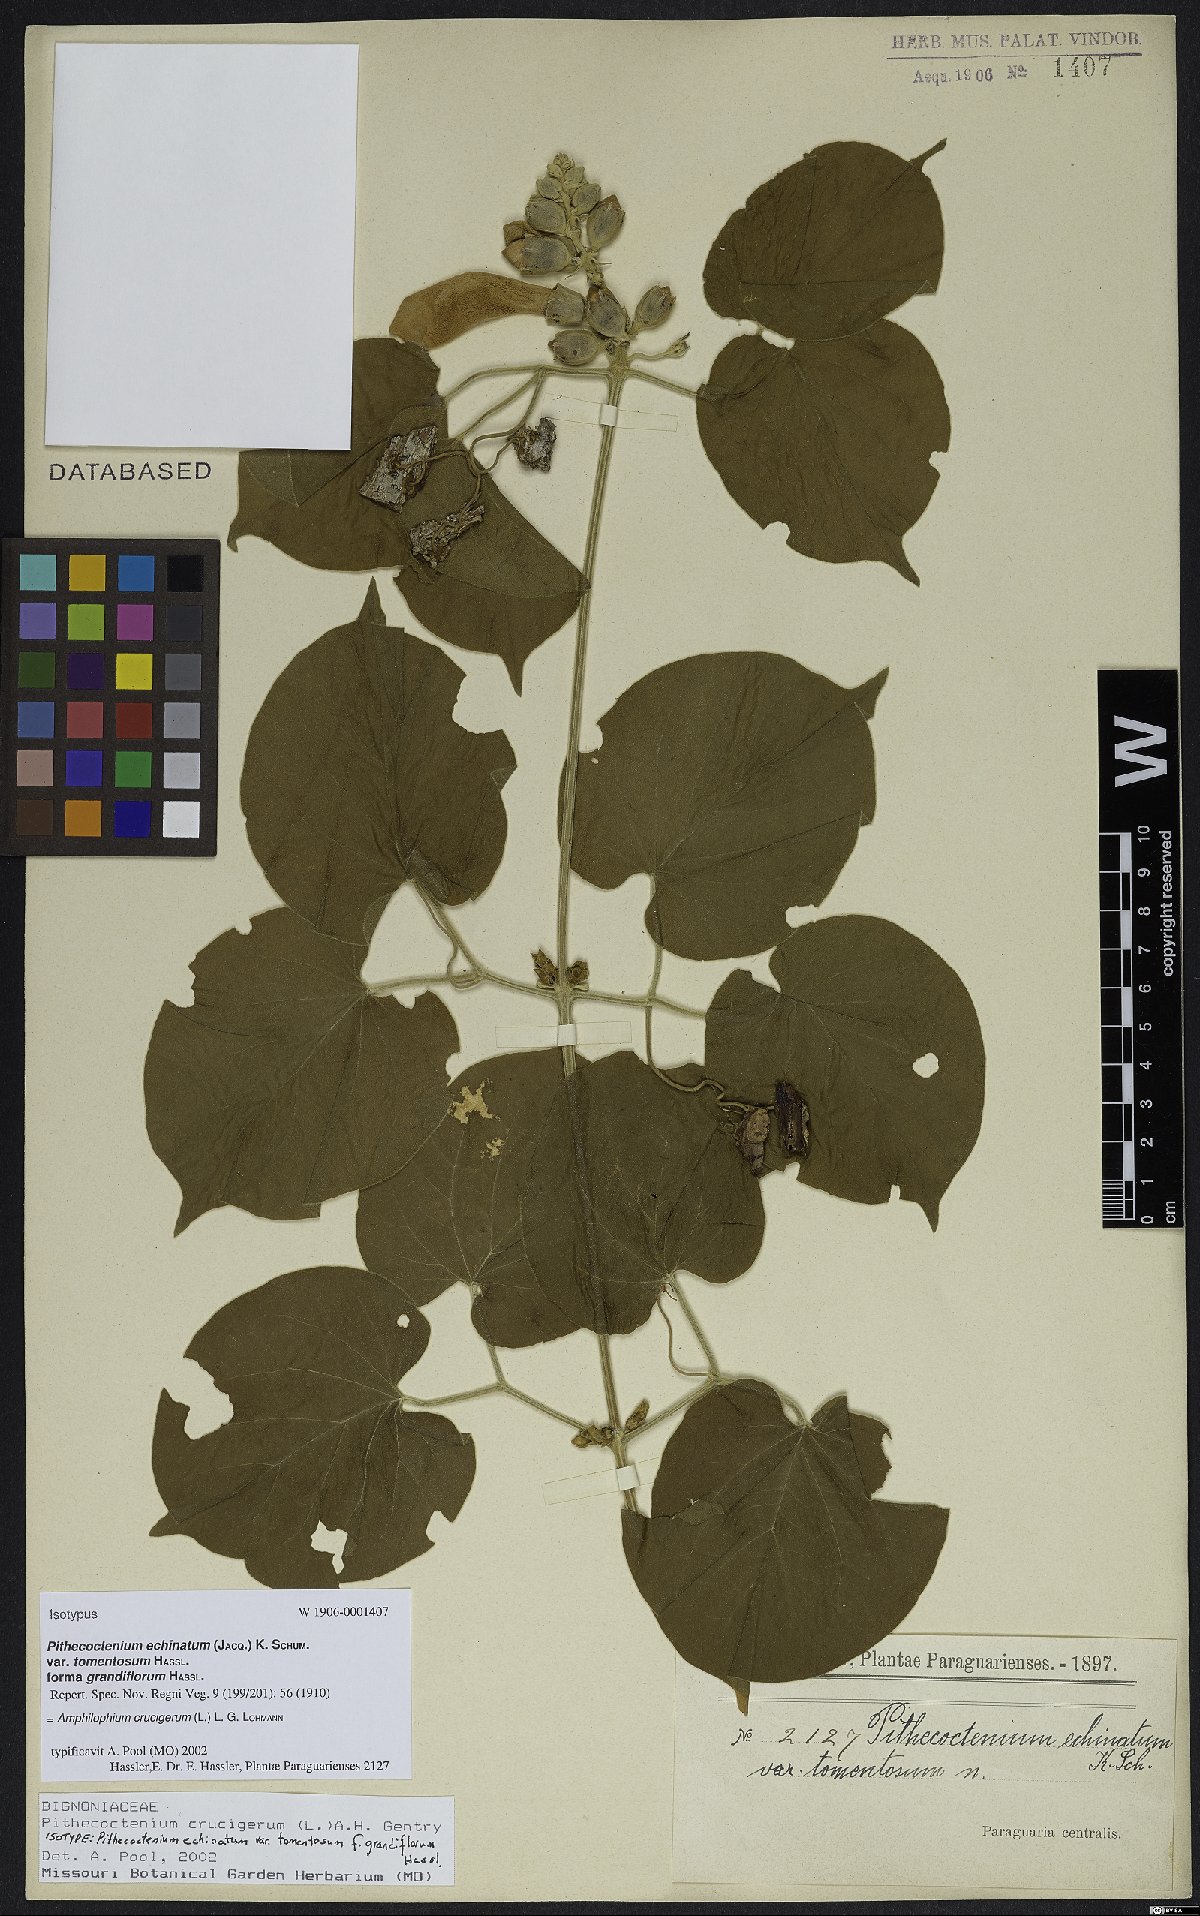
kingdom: Plantae
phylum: Tracheophyta
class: Magnoliopsida
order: Lamiales
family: Bignoniaceae
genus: Amphilophium
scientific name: Amphilophium crucigerum
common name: Monkey comb
